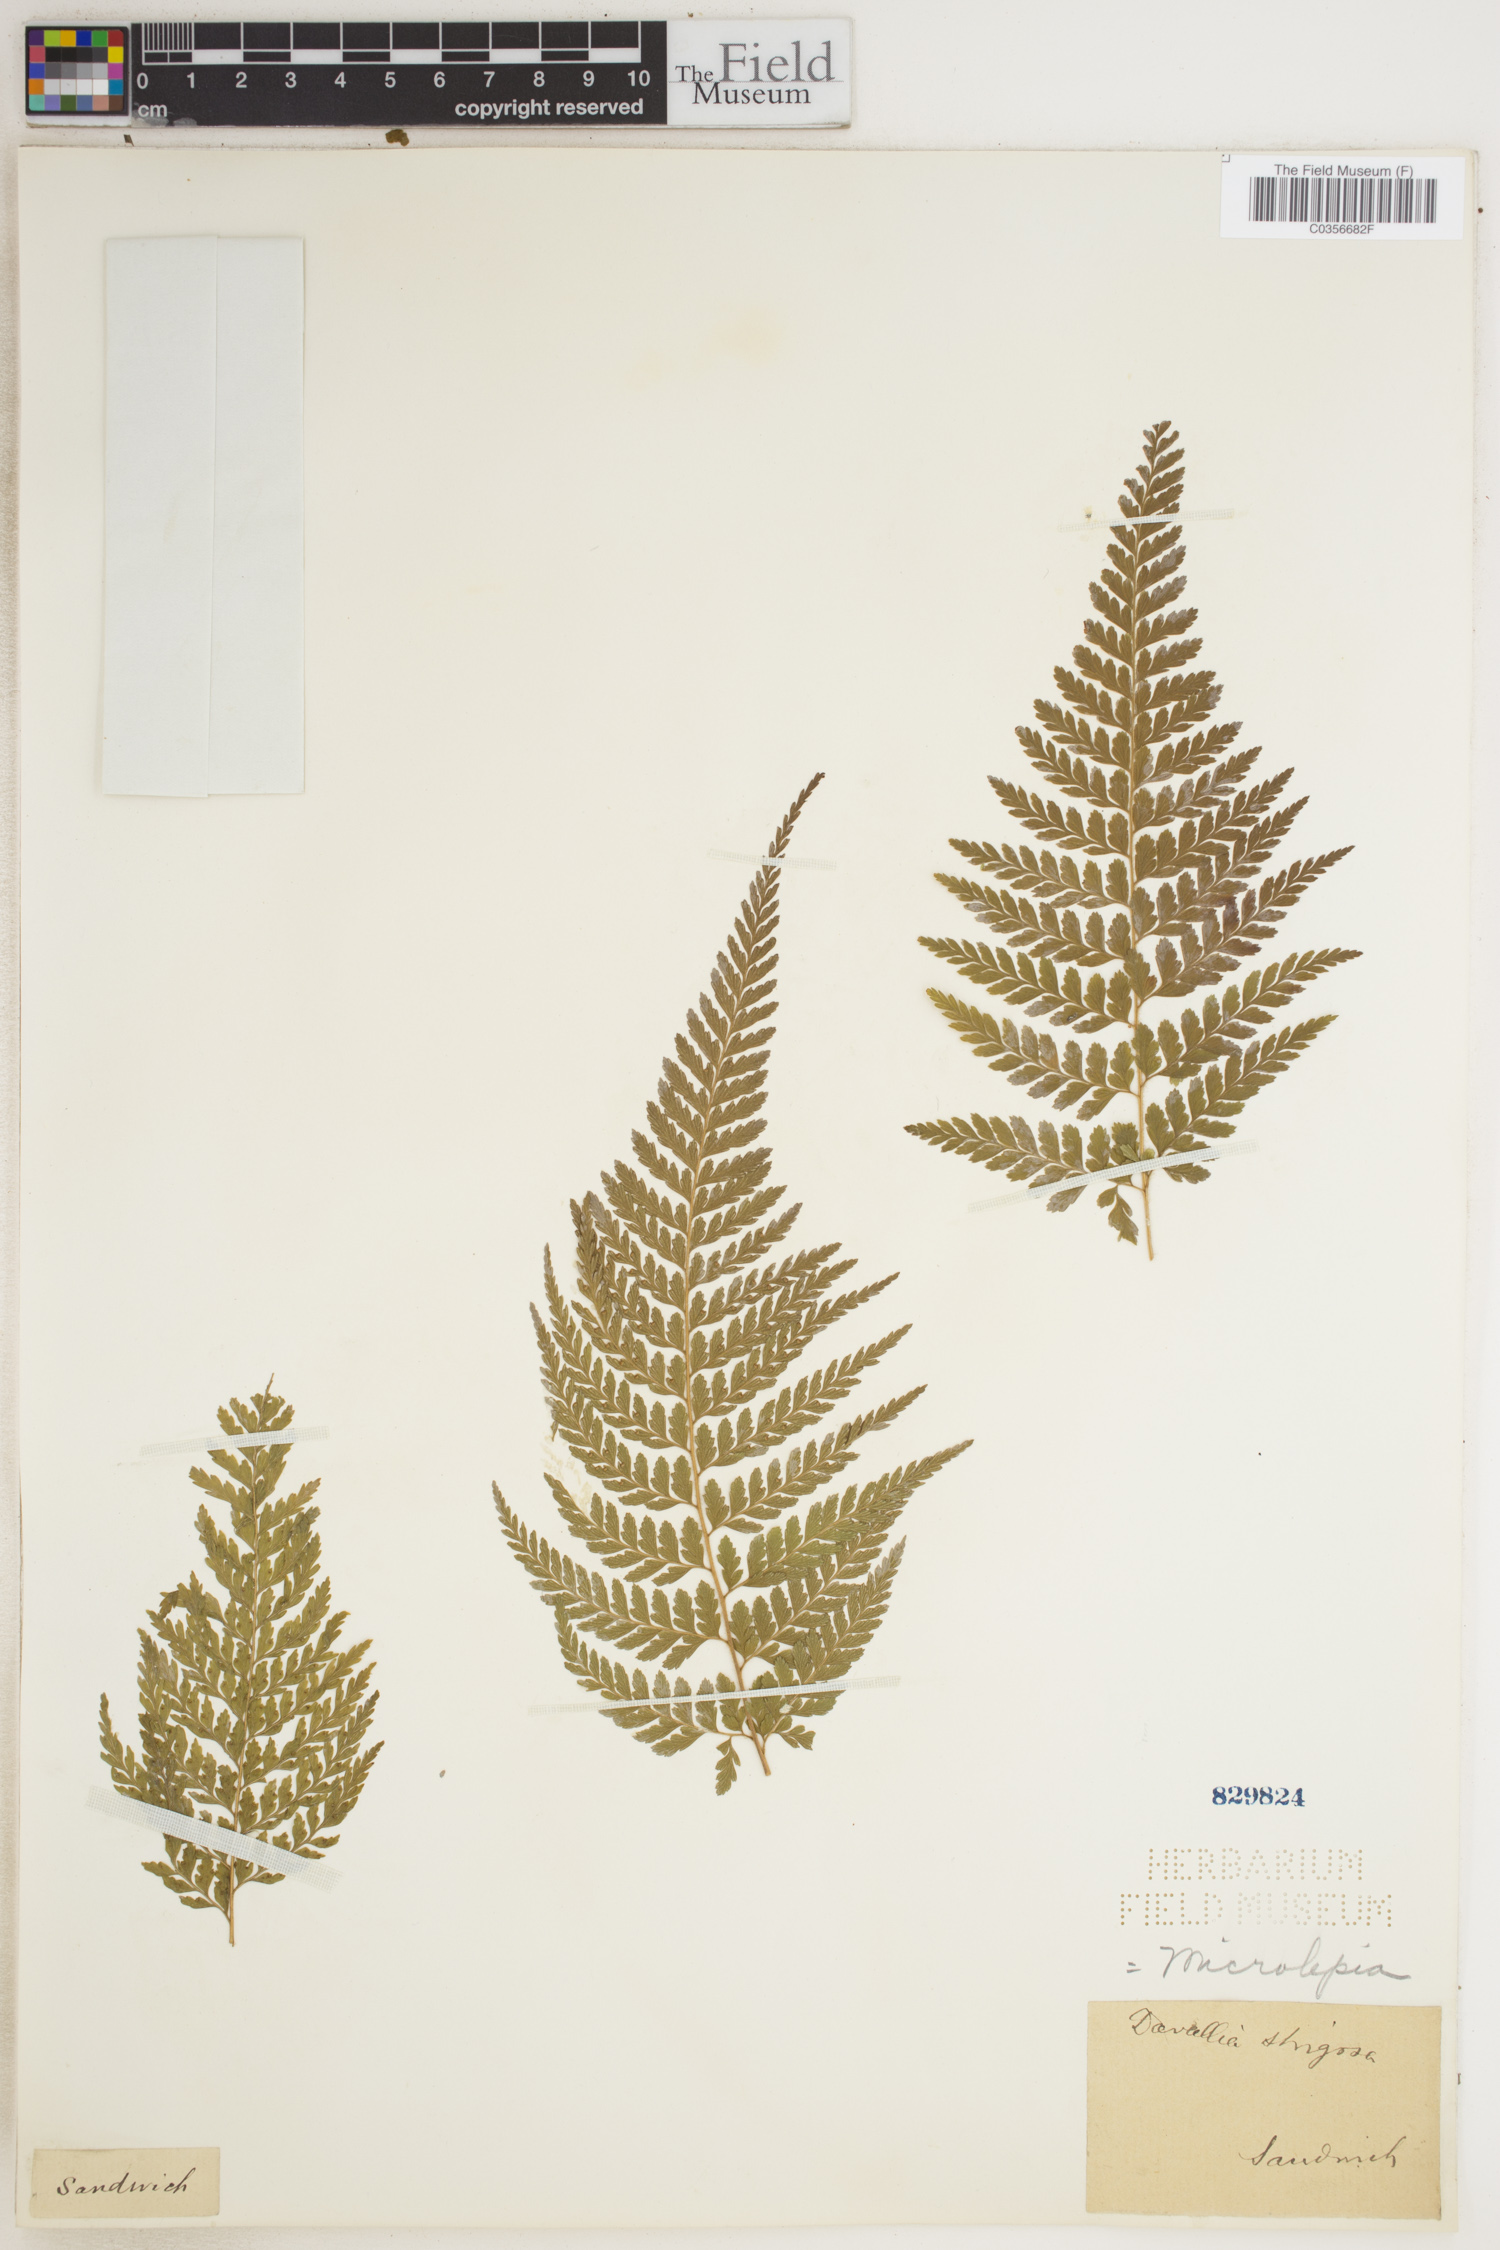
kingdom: Plantae
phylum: Tracheophyta
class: Polypodiopsida
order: Polypodiales
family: Dennstaedtiaceae
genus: Microlepia
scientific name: Microlepia strigosa
